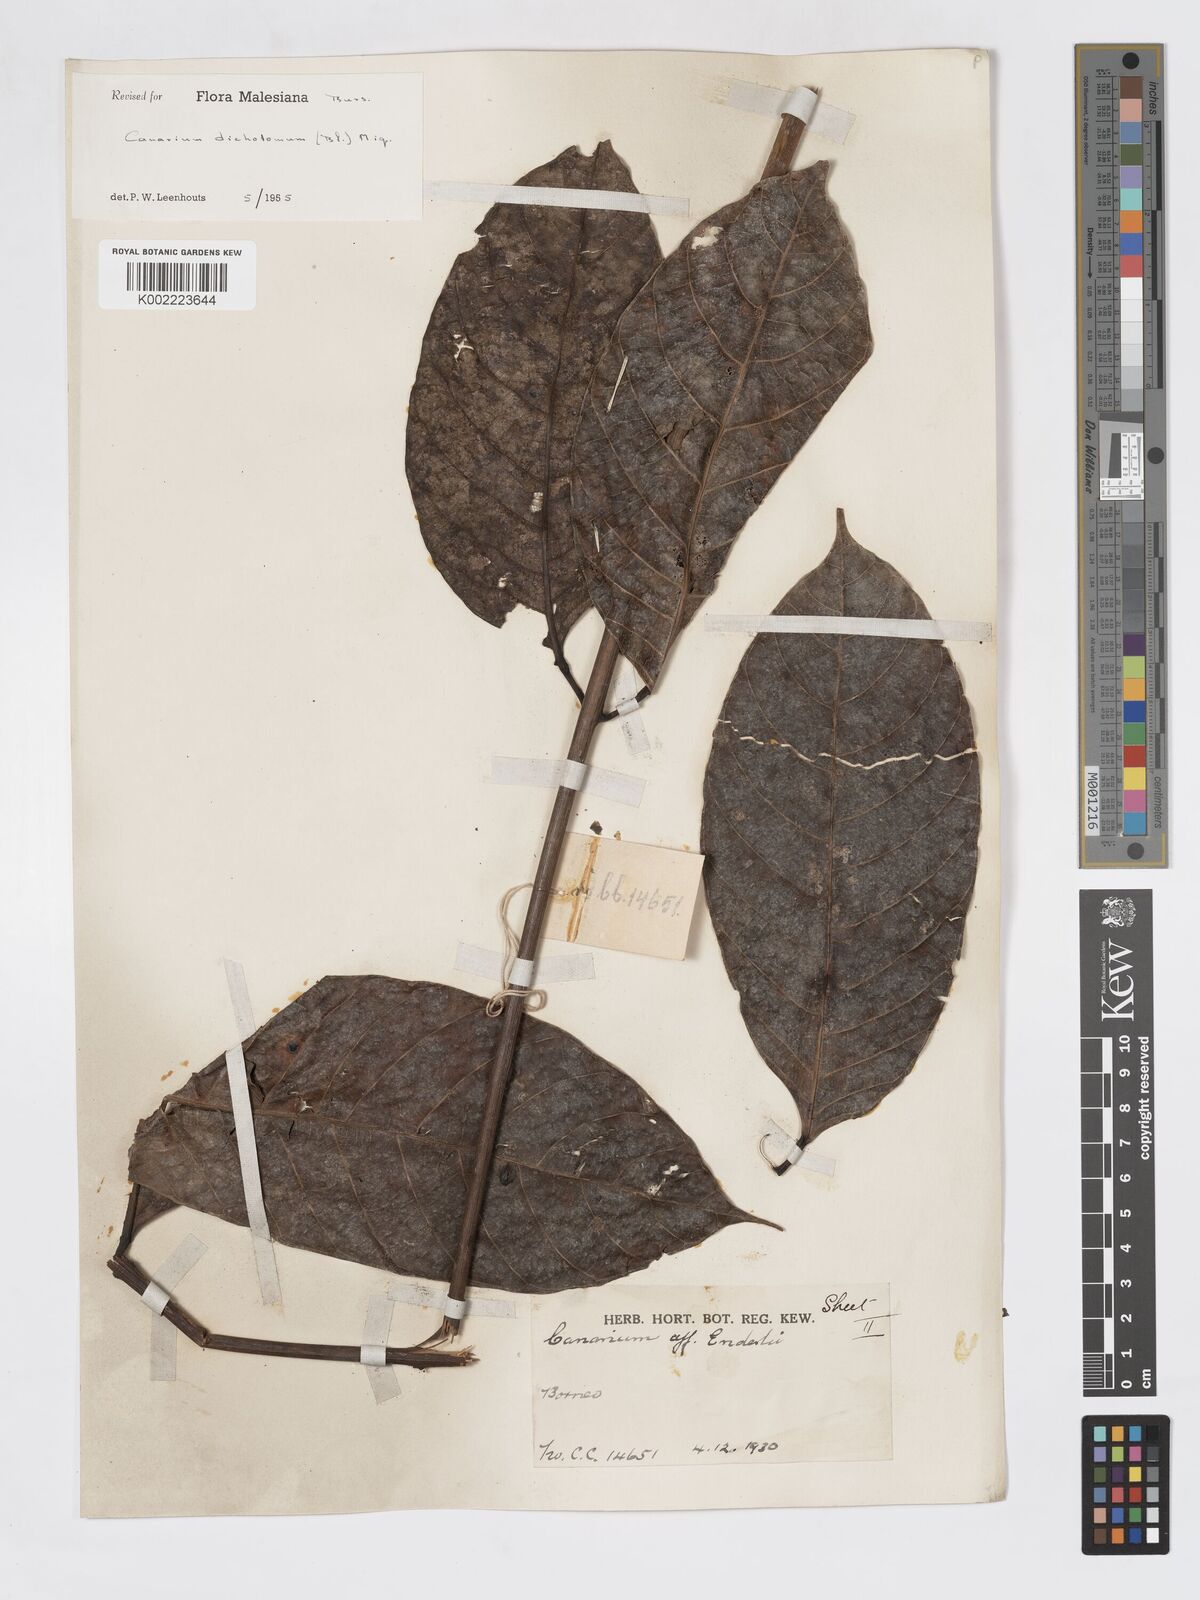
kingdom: Plantae
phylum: Tracheophyta
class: Magnoliopsida
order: Sapindales
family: Burseraceae
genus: Canarium
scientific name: Canarium dichotomum
